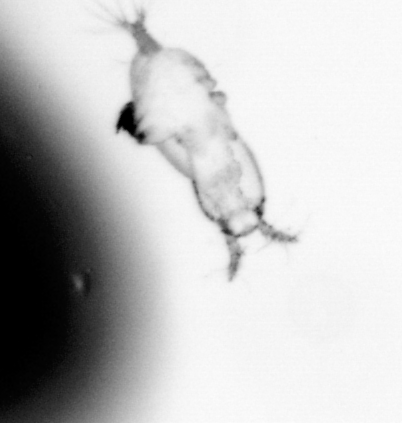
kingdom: Animalia
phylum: Arthropoda
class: Copepoda
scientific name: Copepoda
